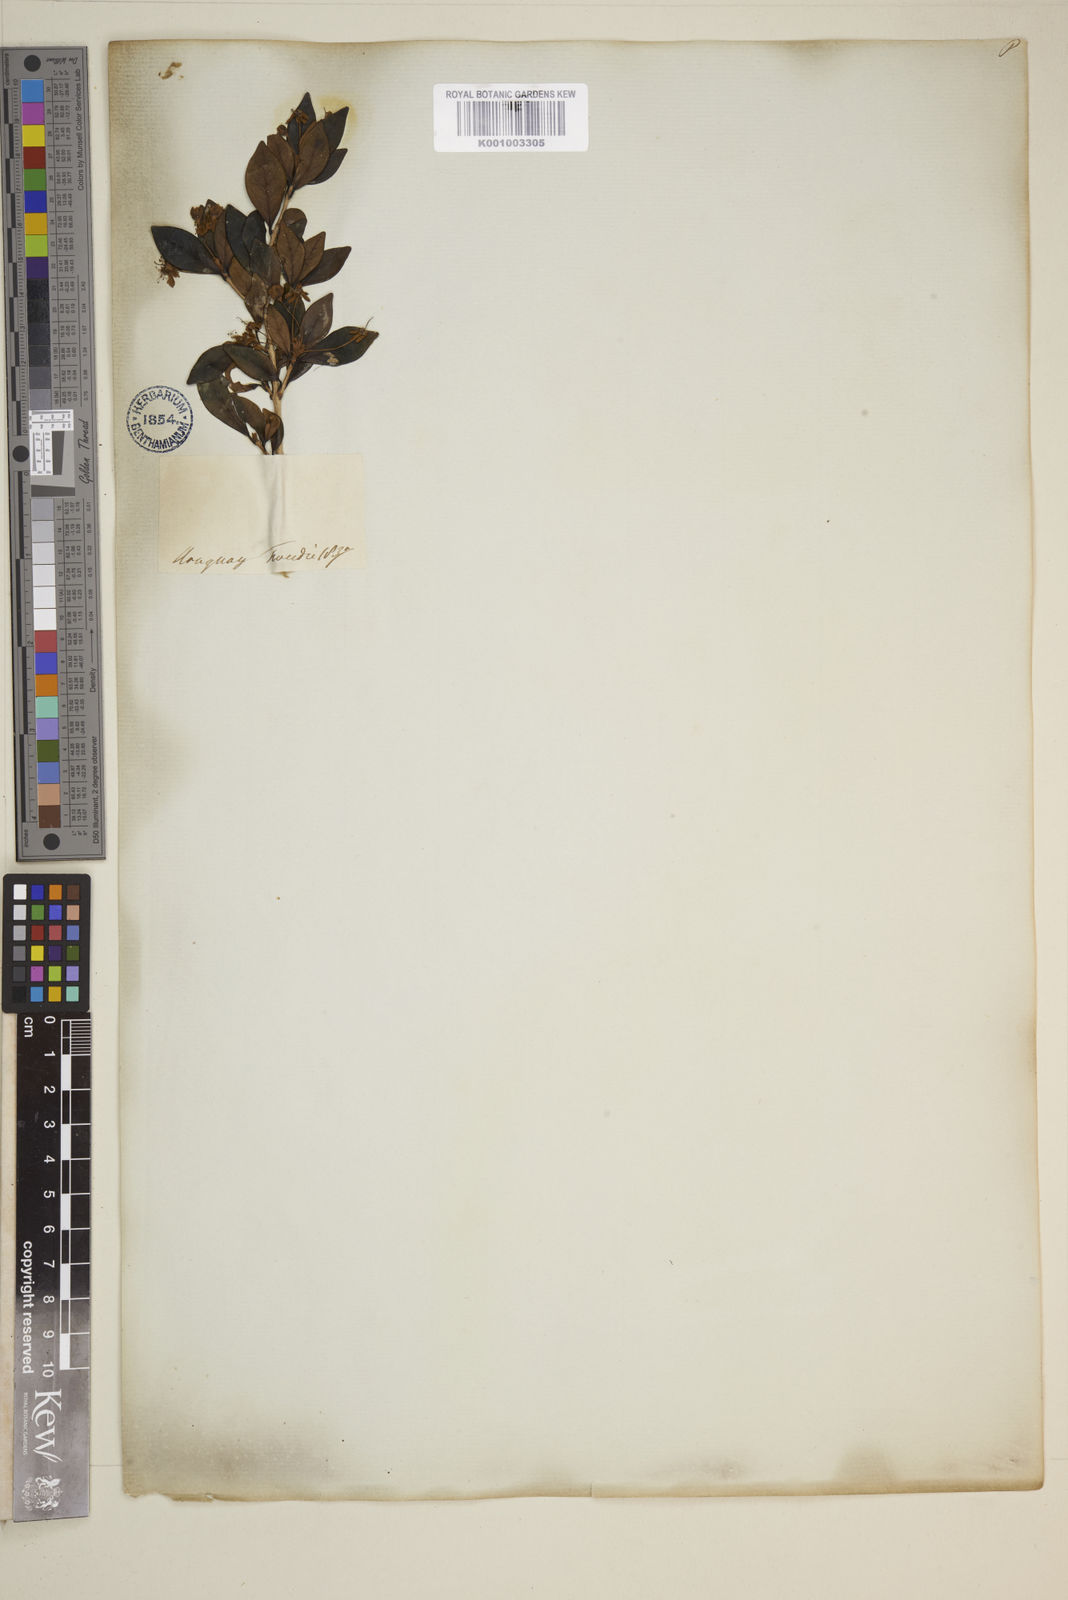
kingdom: Plantae
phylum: Tracheophyta
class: Magnoliopsida
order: Myrtales
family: Myrtaceae
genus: Eugenia
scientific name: Eugenia
